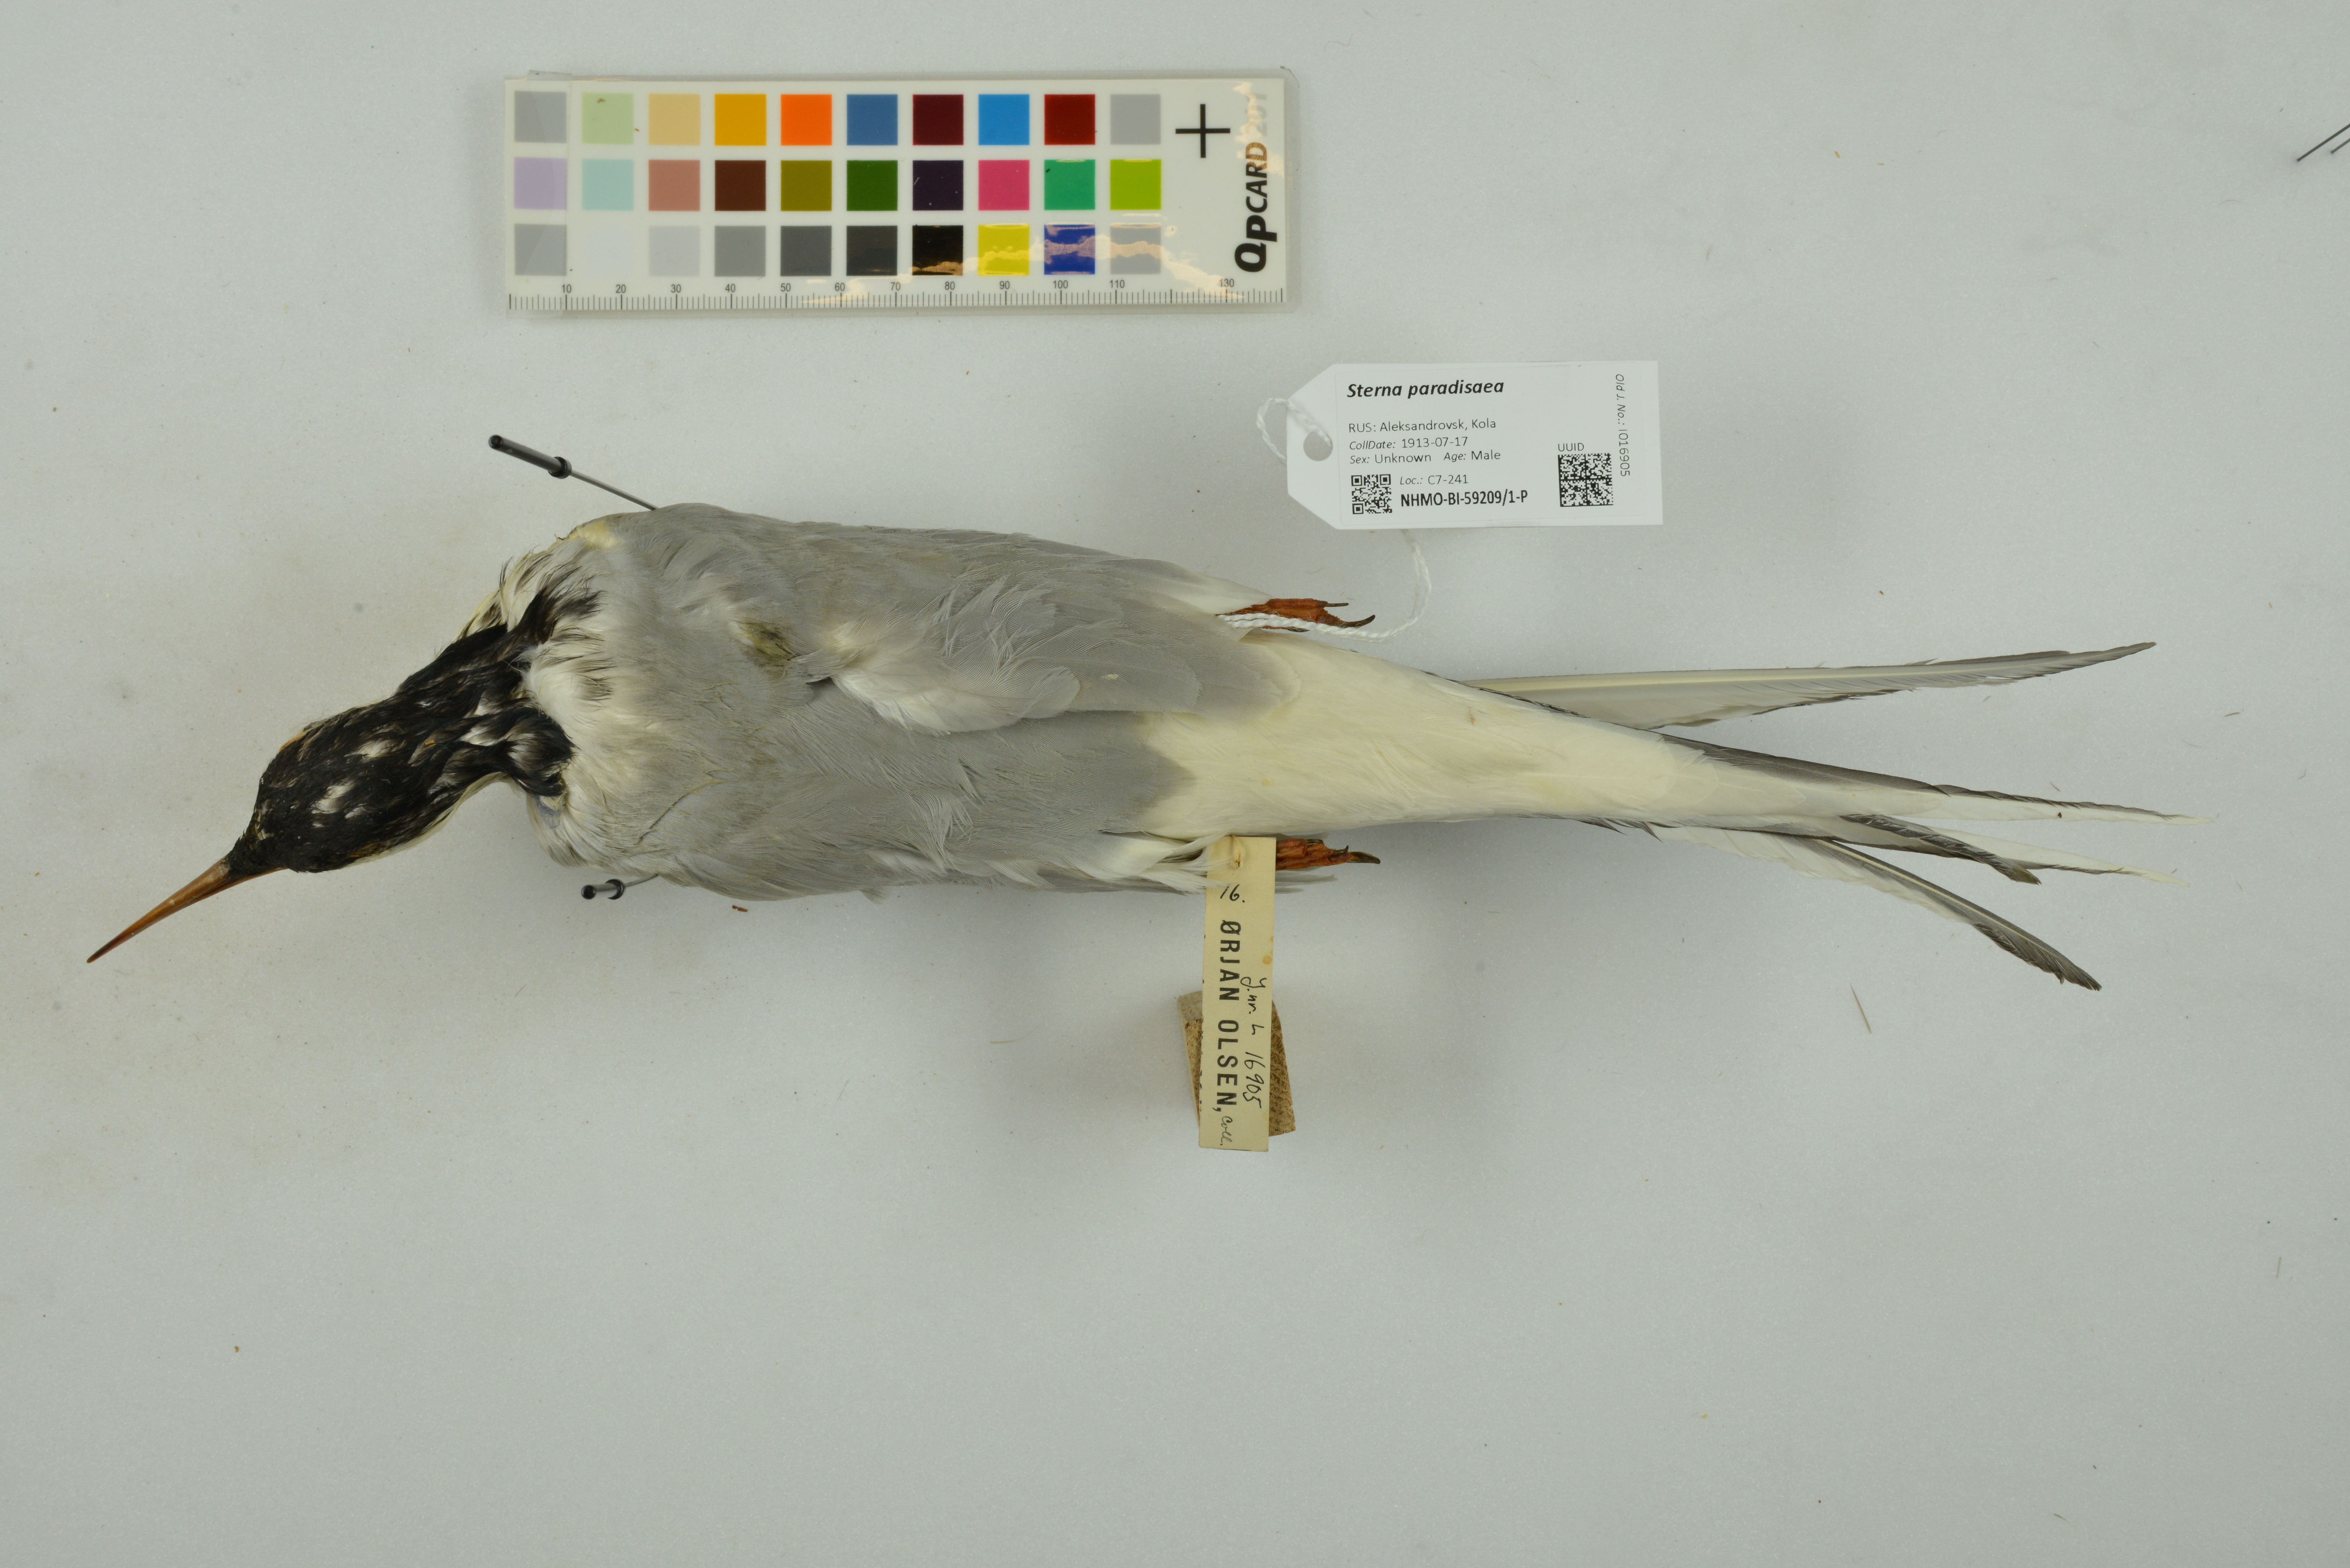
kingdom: Animalia
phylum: Chordata
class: Aves
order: Charadriiformes
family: Laridae
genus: Sterna
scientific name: Sterna paradisaea
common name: Arctic tern
